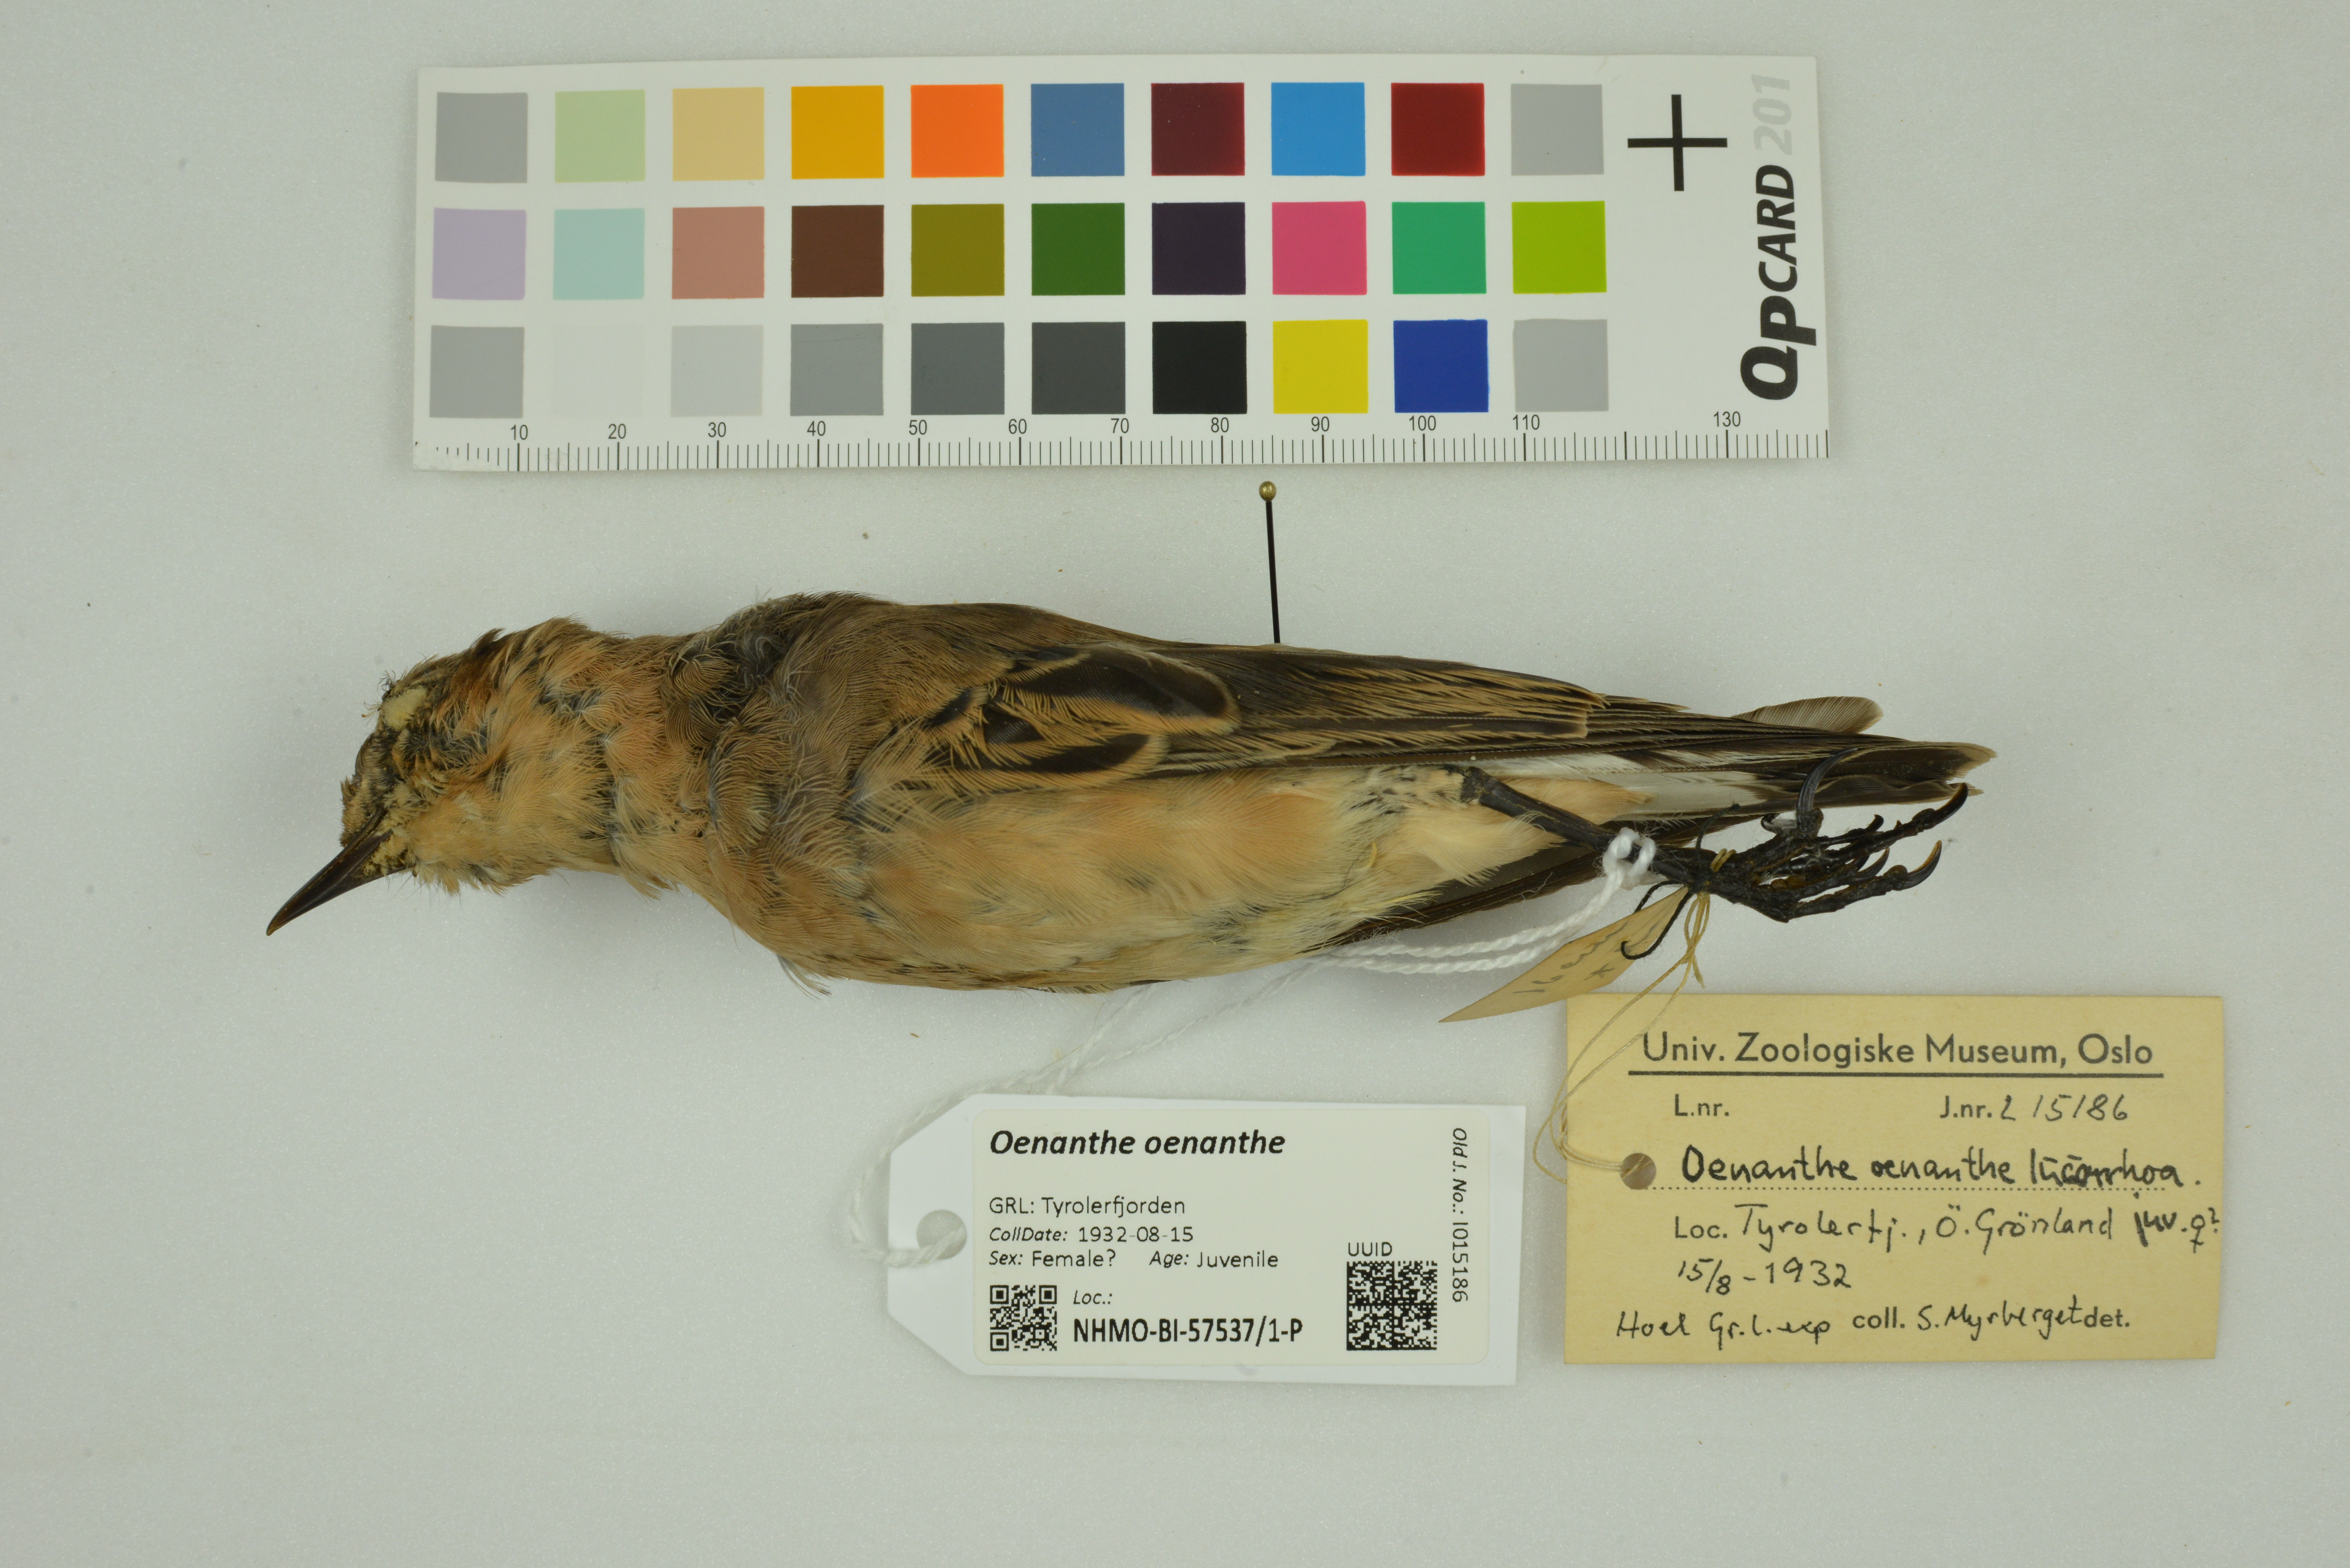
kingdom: Animalia
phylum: Chordata
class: Aves
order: Passeriformes
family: Muscicapidae
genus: Oenanthe
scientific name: Oenanthe oenanthe
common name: Northern wheatear
